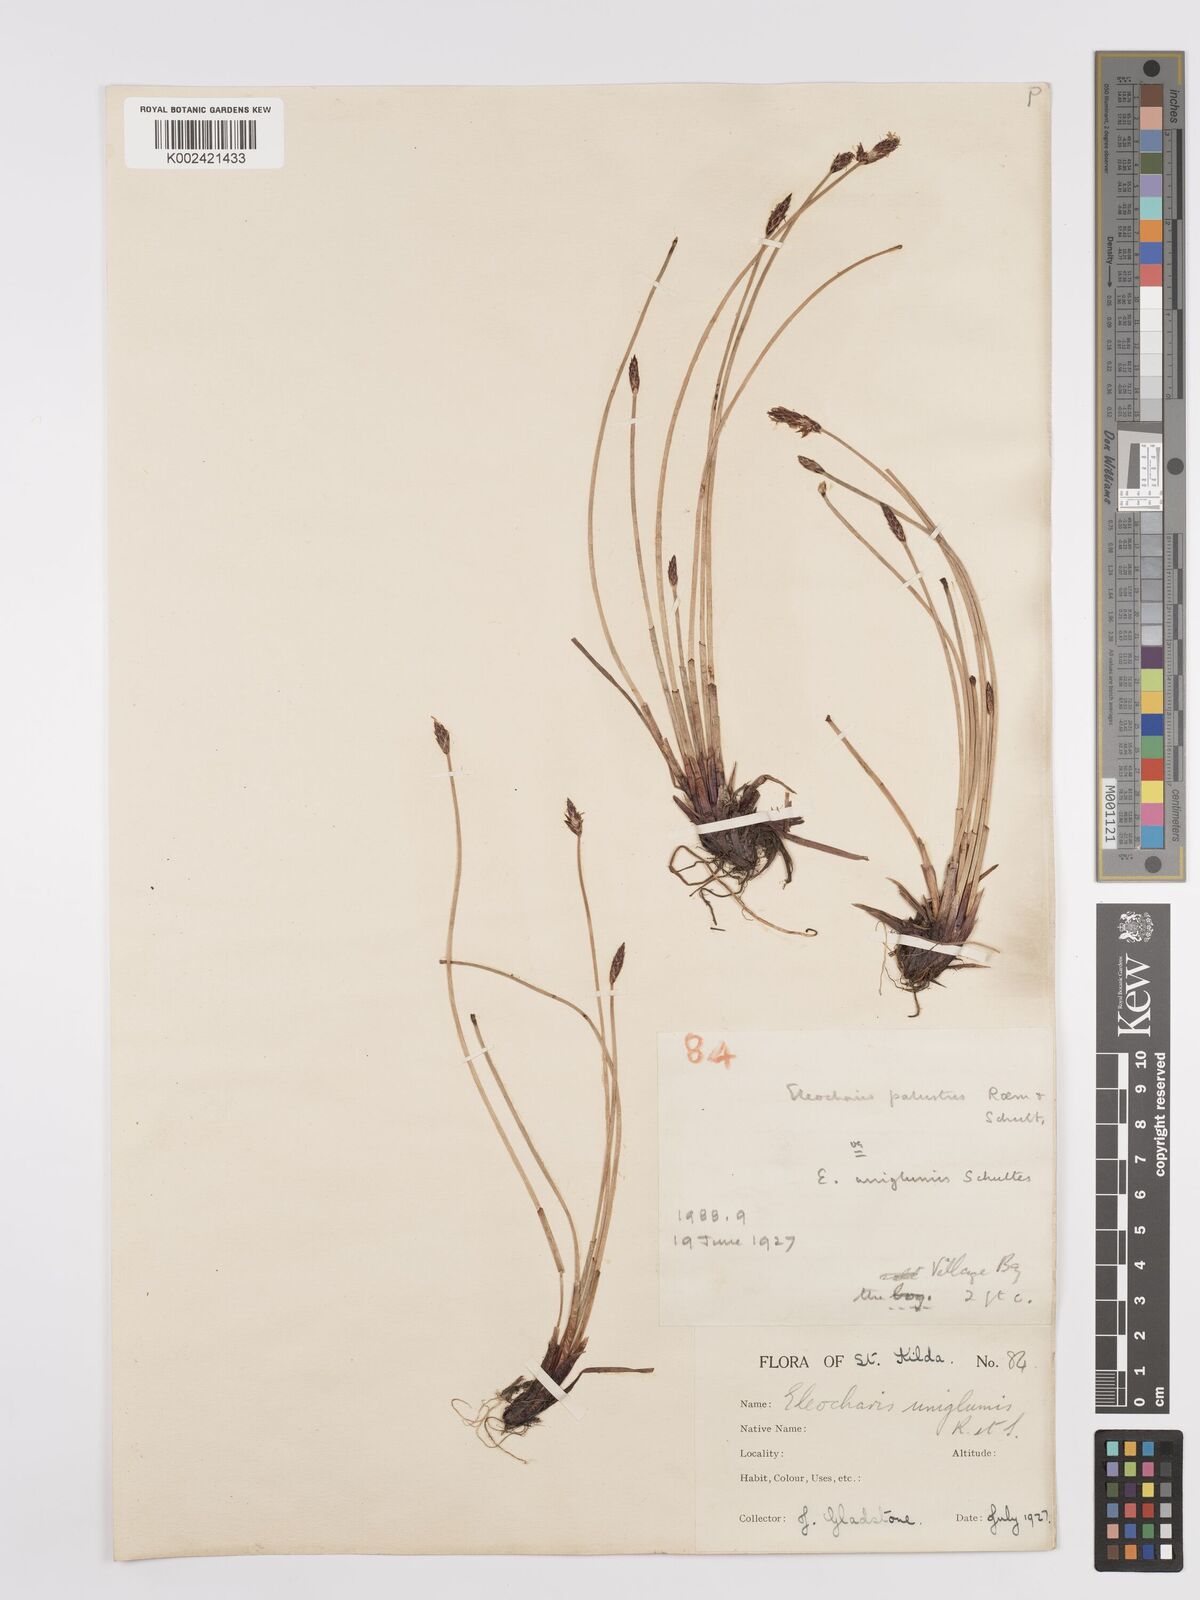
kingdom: Plantae
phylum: Tracheophyta
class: Liliopsida
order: Poales
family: Cyperaceae
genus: Eleocharis
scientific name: Eleocharis uniglumis
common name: Slender spike-rush
